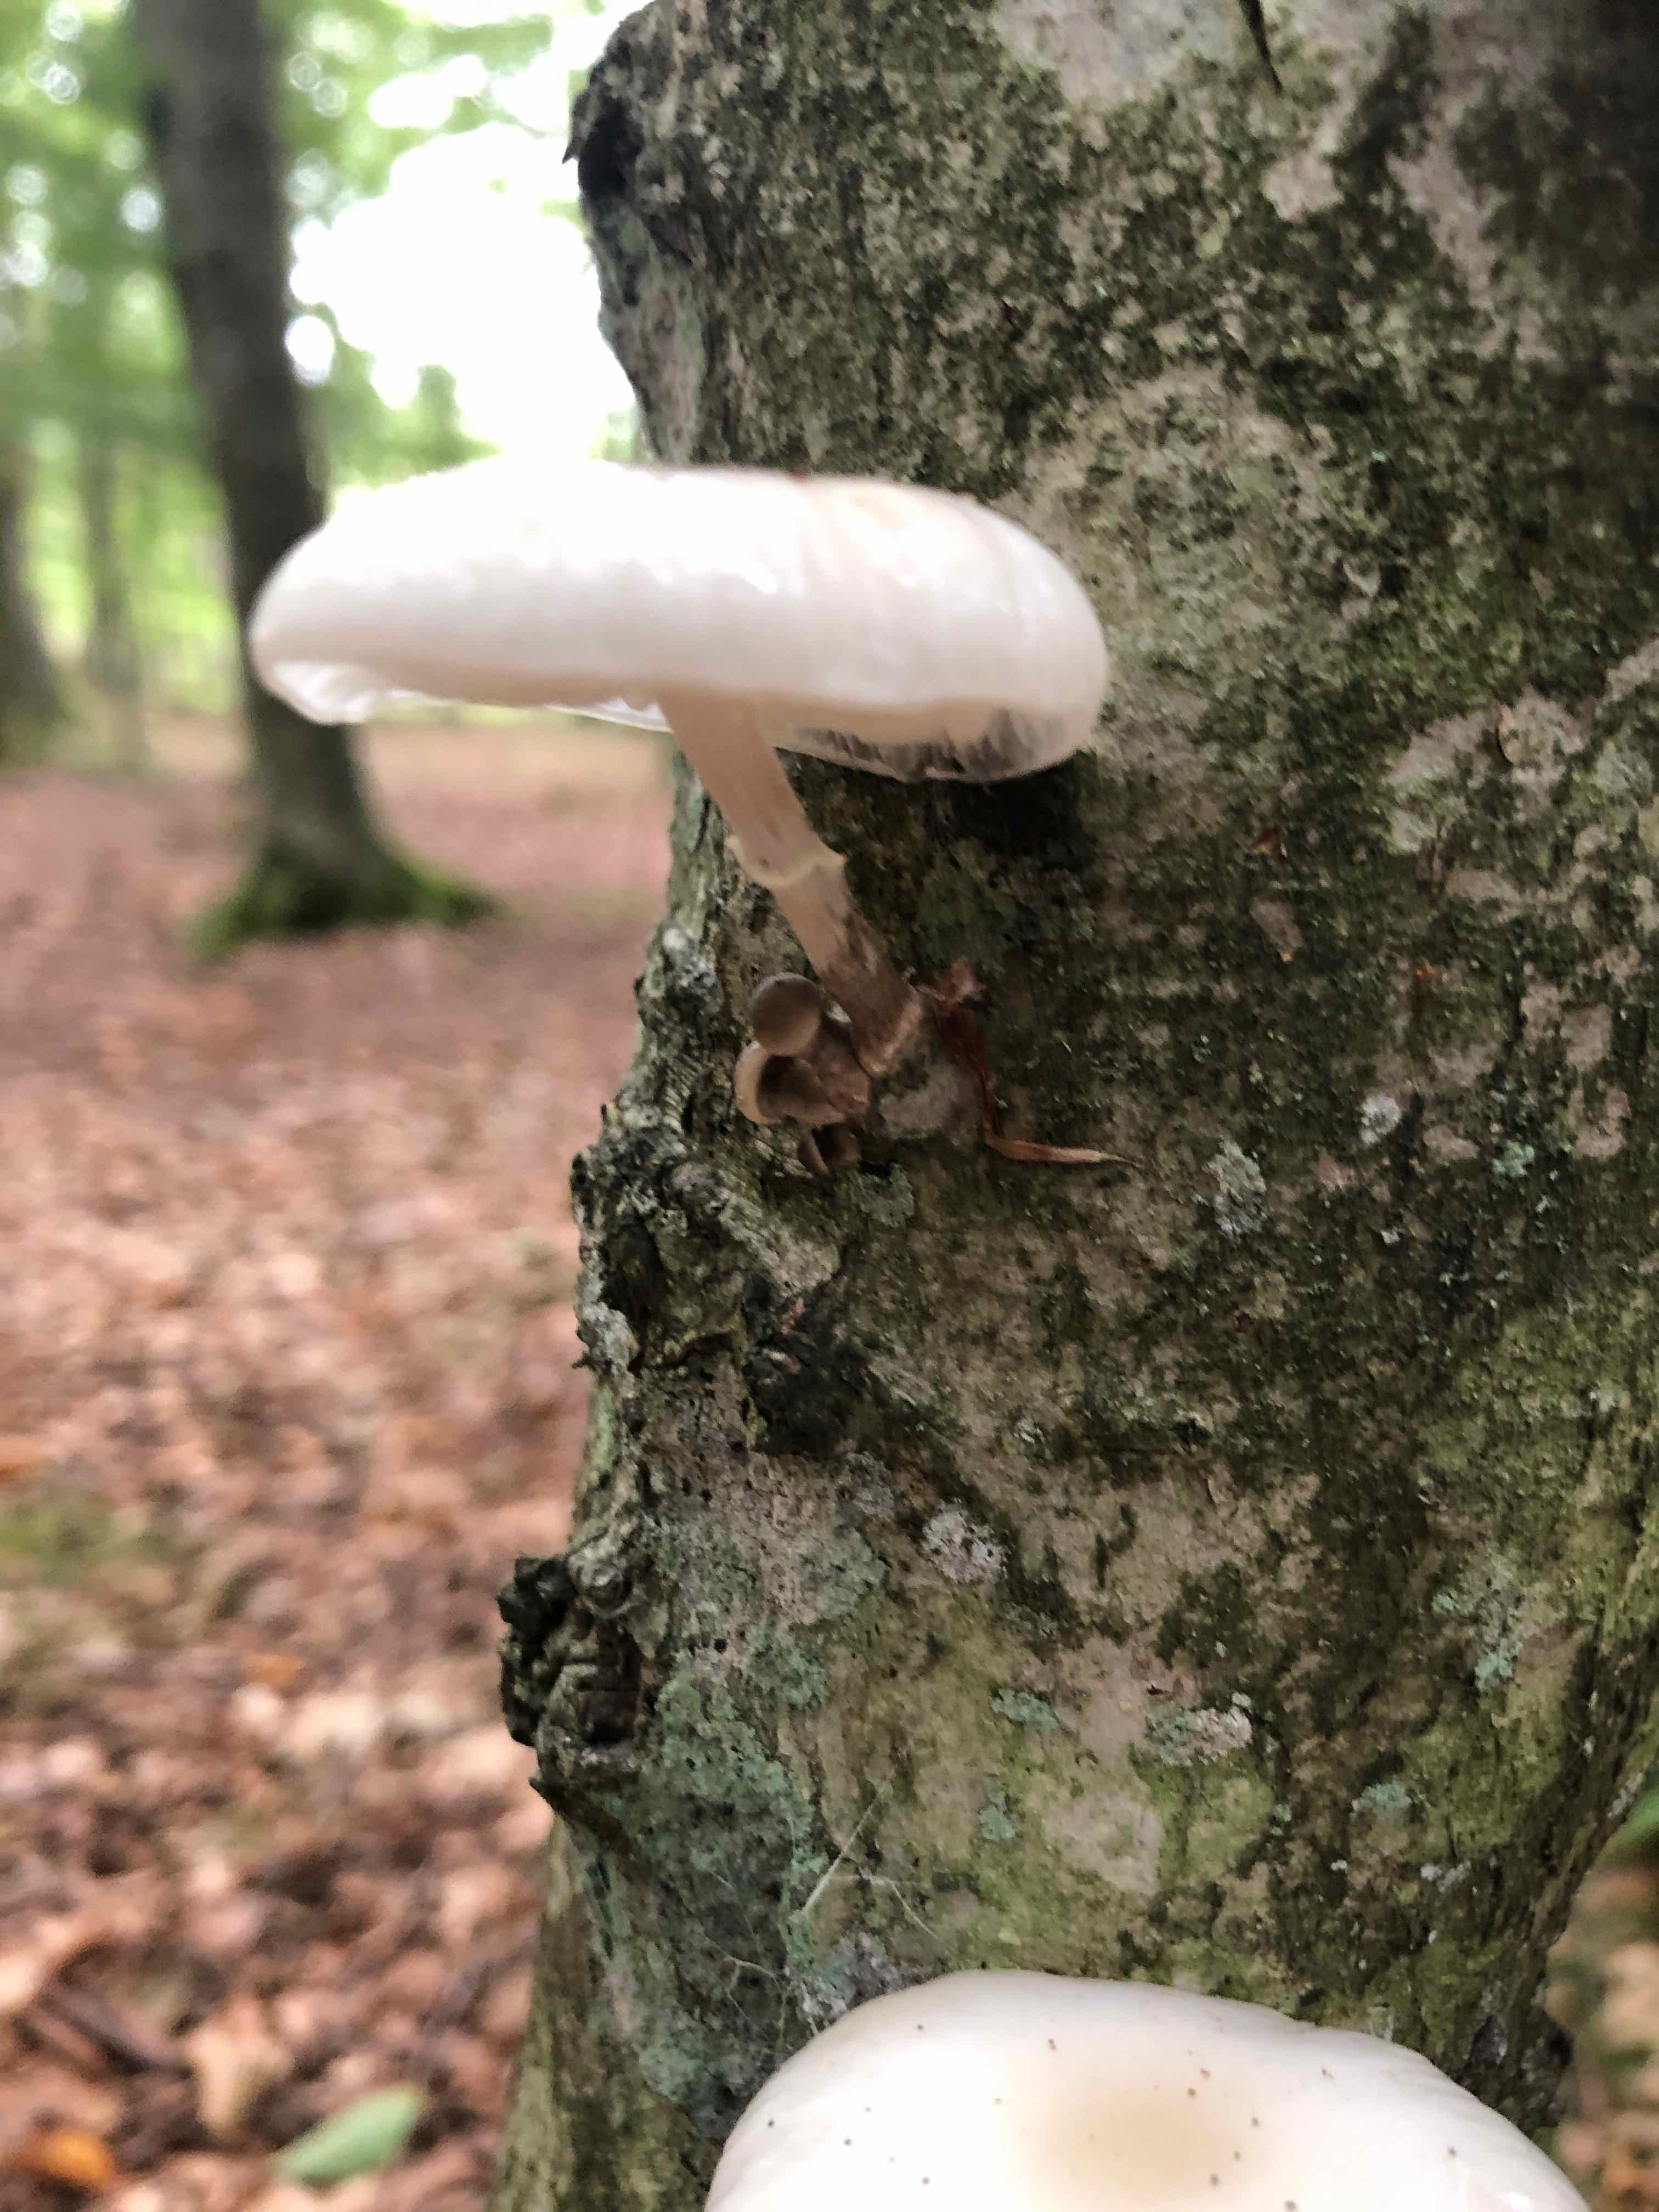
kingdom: Fungi
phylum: Basidiomycota
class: Agaricomycetes
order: Agaricales
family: Physalacriaceae
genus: Mucidula
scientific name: Mucidula mucida
